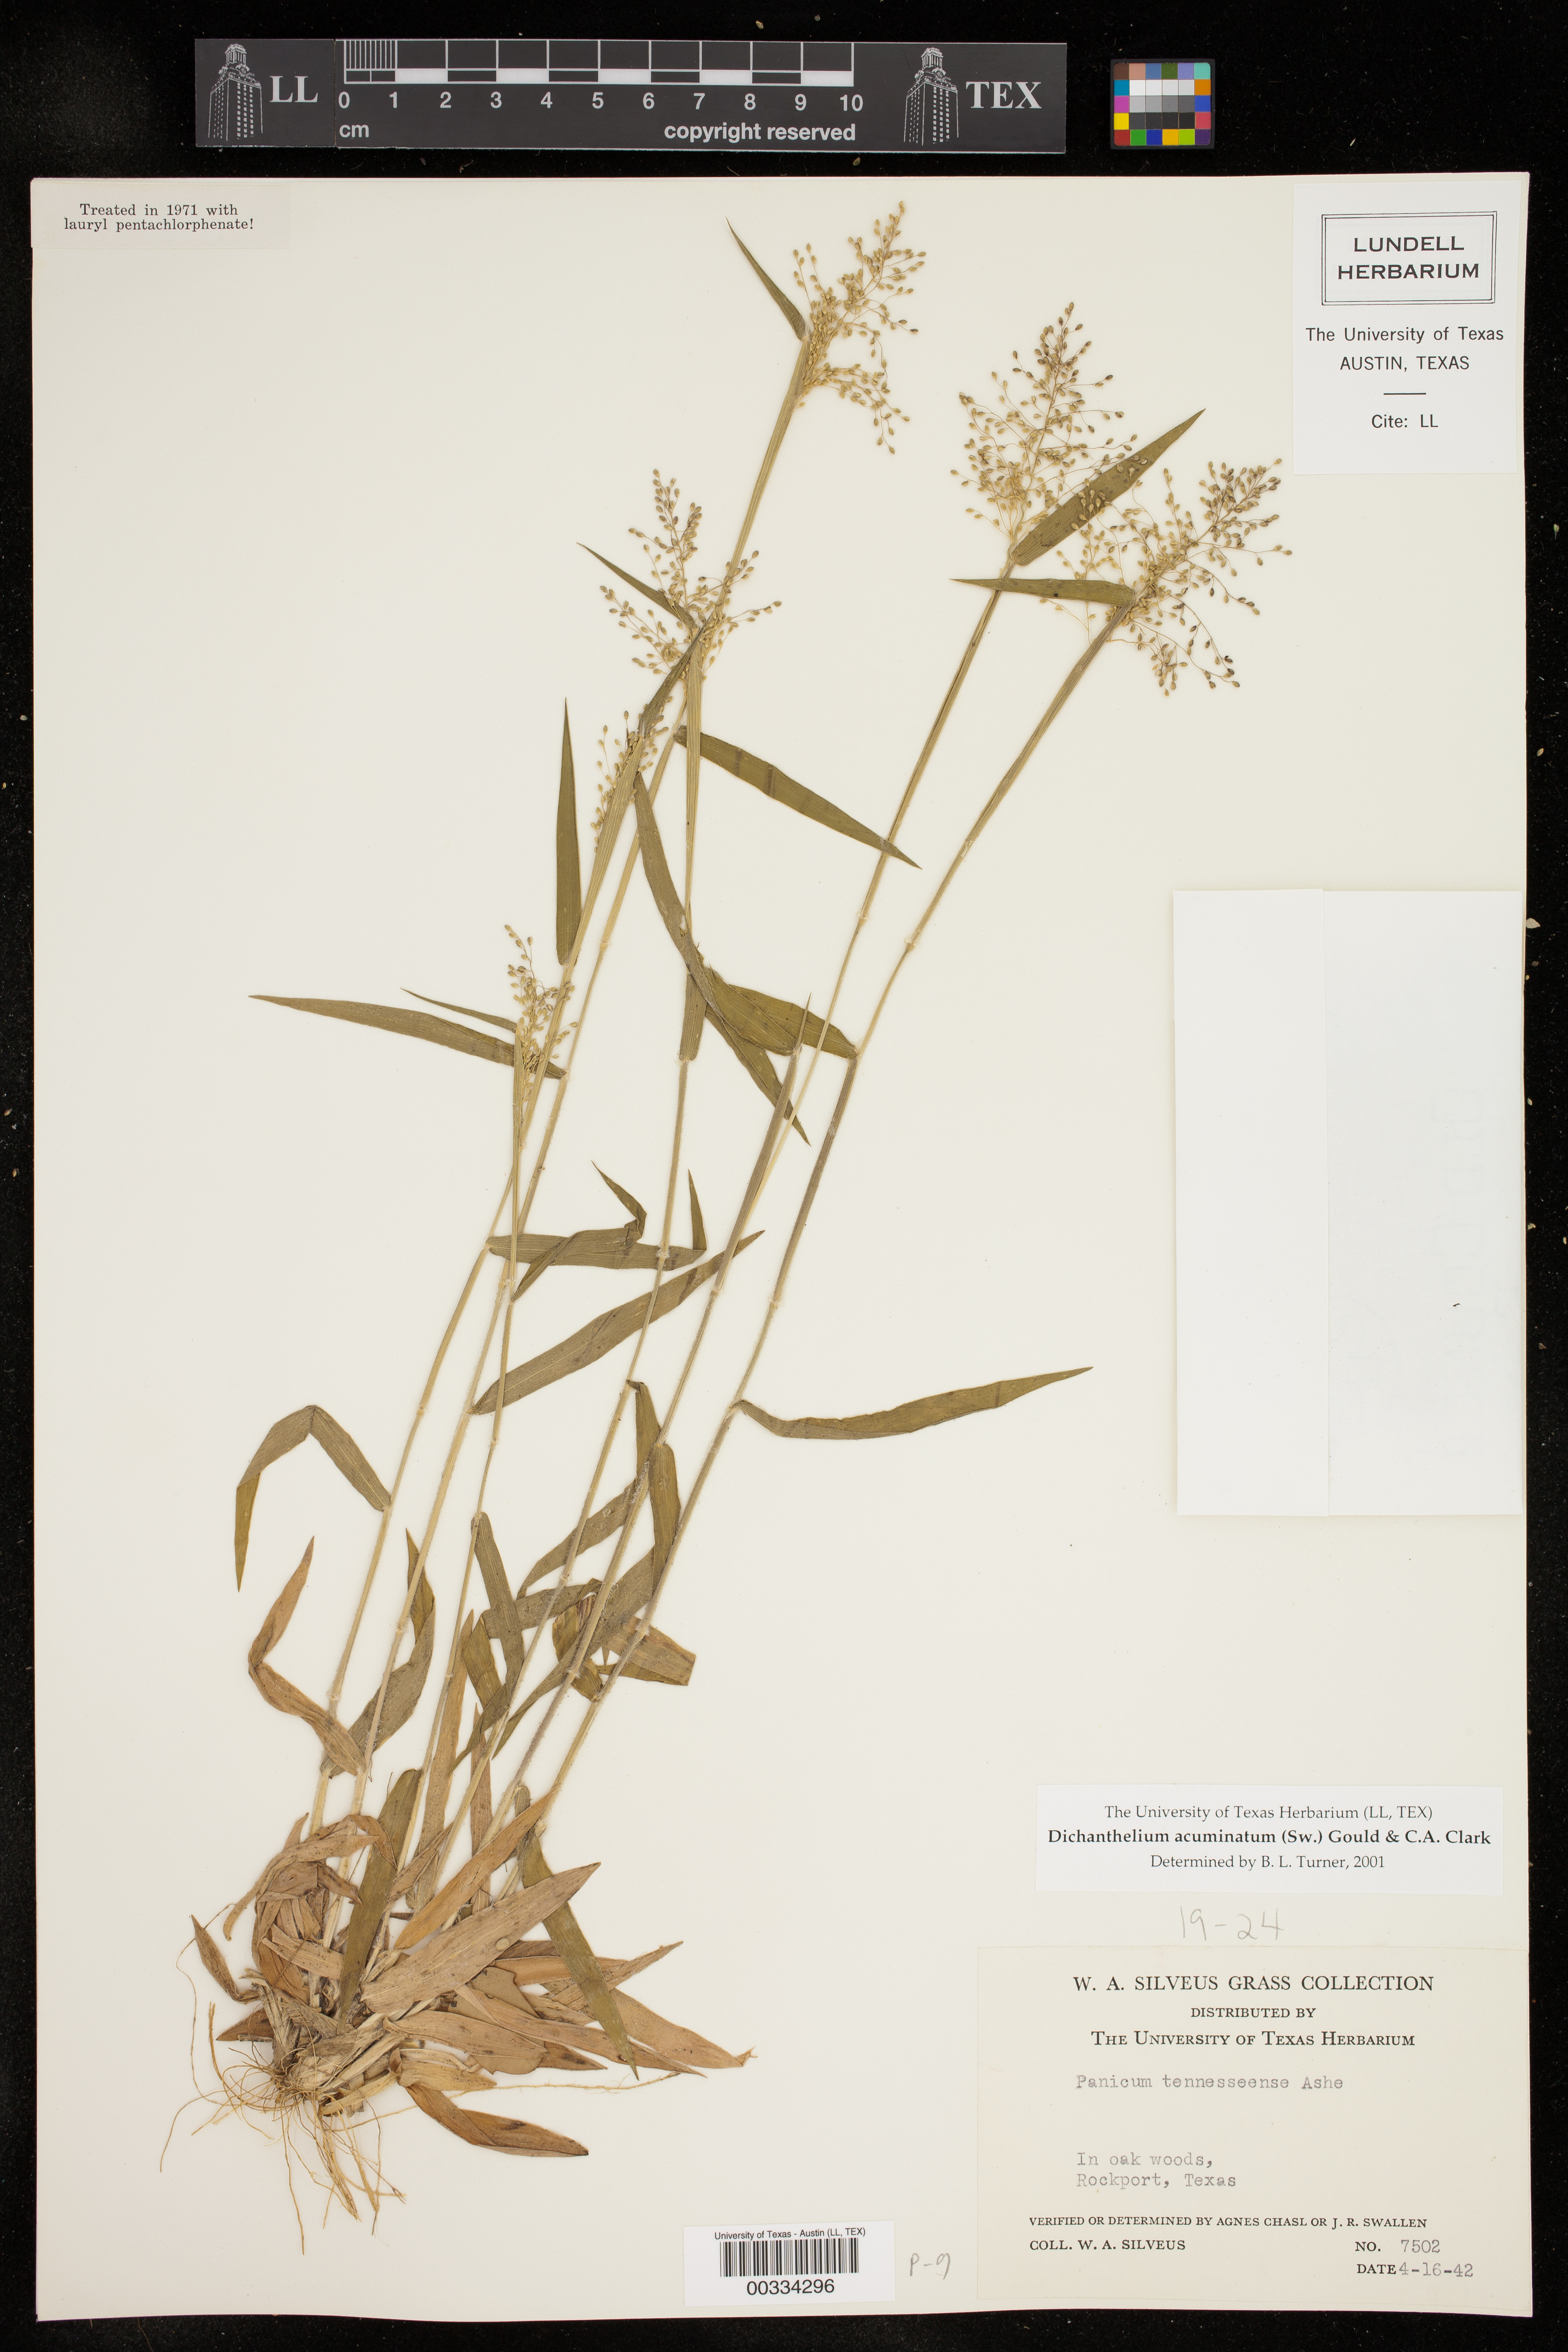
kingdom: Plantae
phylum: Tracheophyta
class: Liliopsida
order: Poales
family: Poaceae
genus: Dichanthelium
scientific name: Dichanthelium acuminatum
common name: Hairy panic grass
